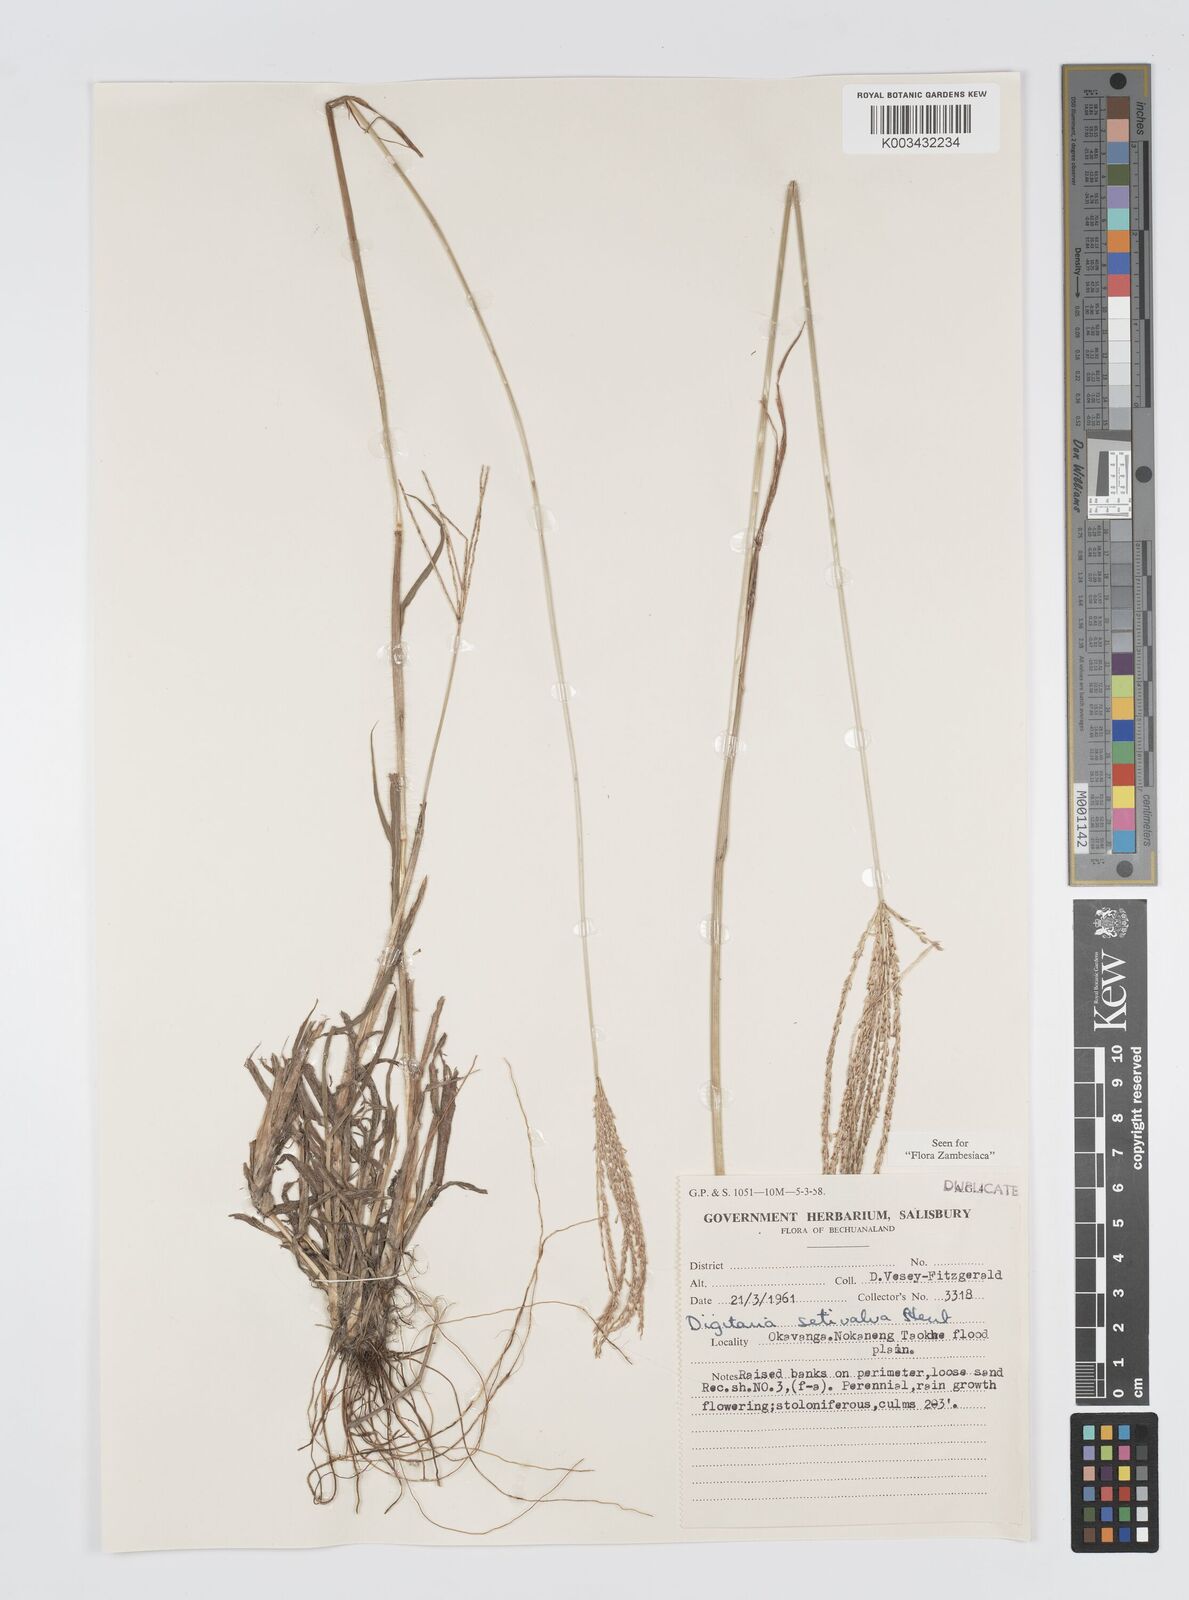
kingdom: Plantae
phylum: Tracheophyta
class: Liliopsida
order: Poales
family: Poaceae
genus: Digitaria
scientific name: Digitaria milanjiana
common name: Madagascar crabgrass
